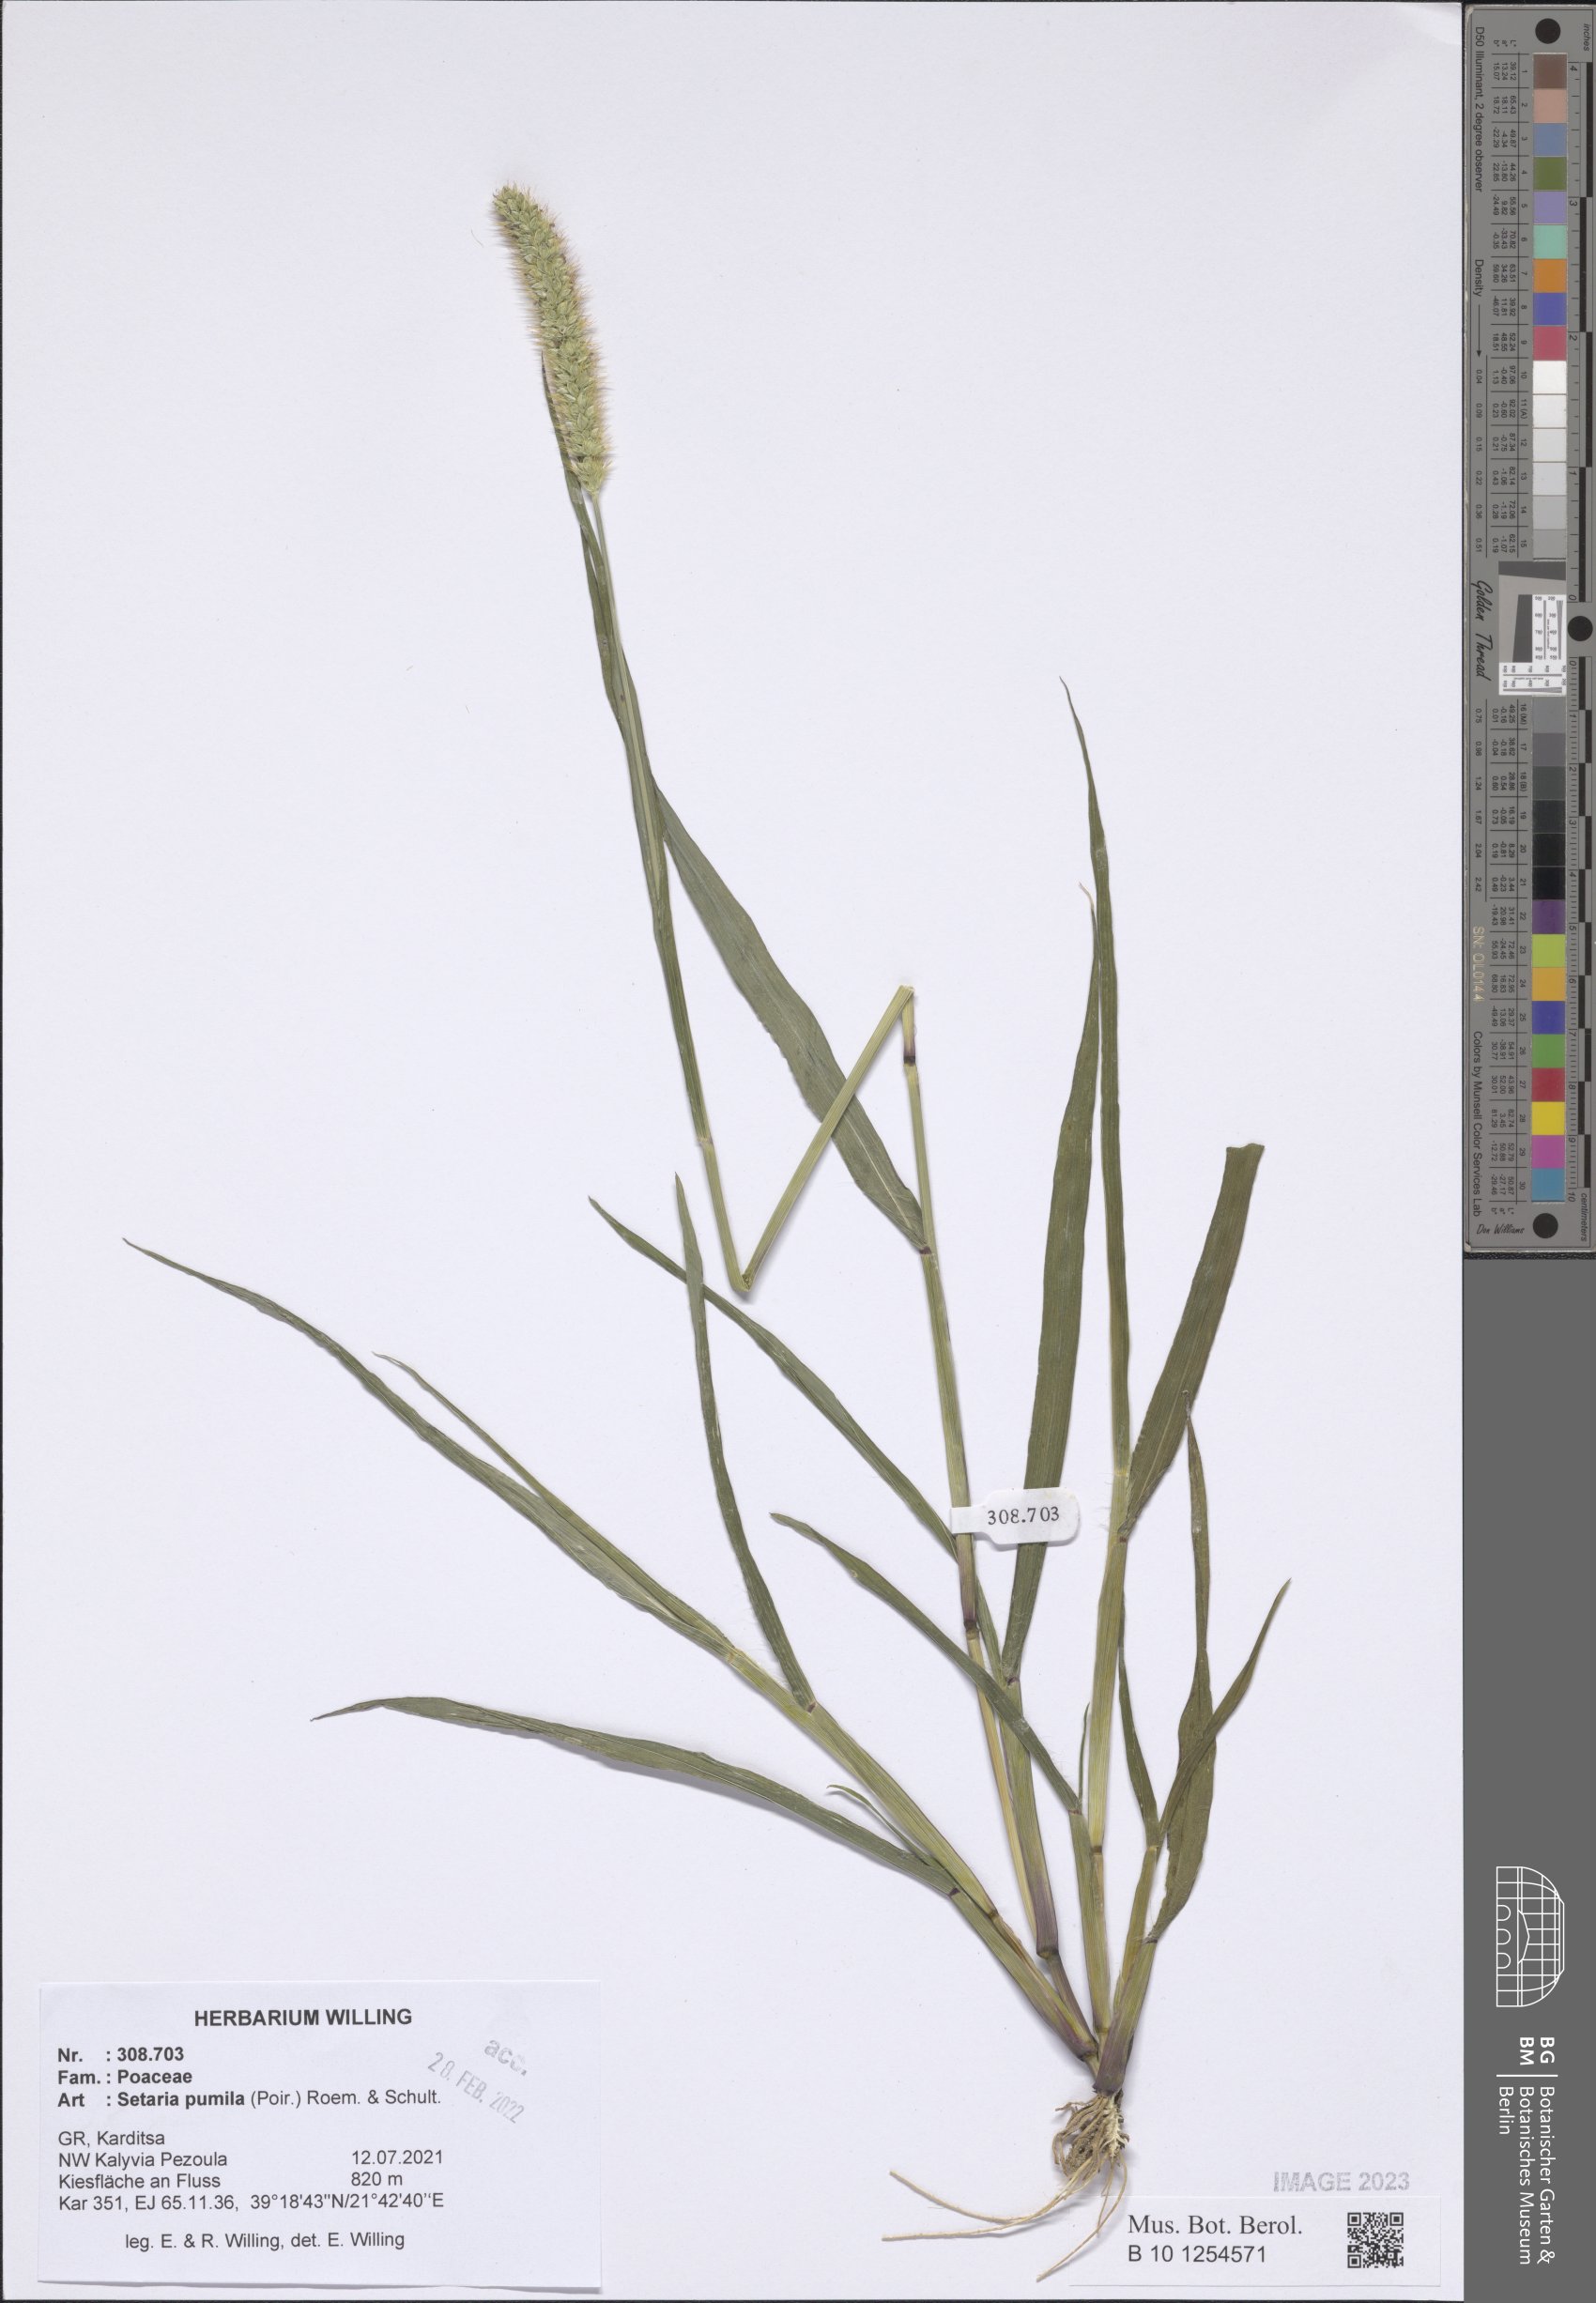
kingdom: Plantae
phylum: Tracheophyta
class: Liliopsida
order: Poales
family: Poaceae
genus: Setaria
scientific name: Setaria pumila
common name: Yellow bristle-grass
